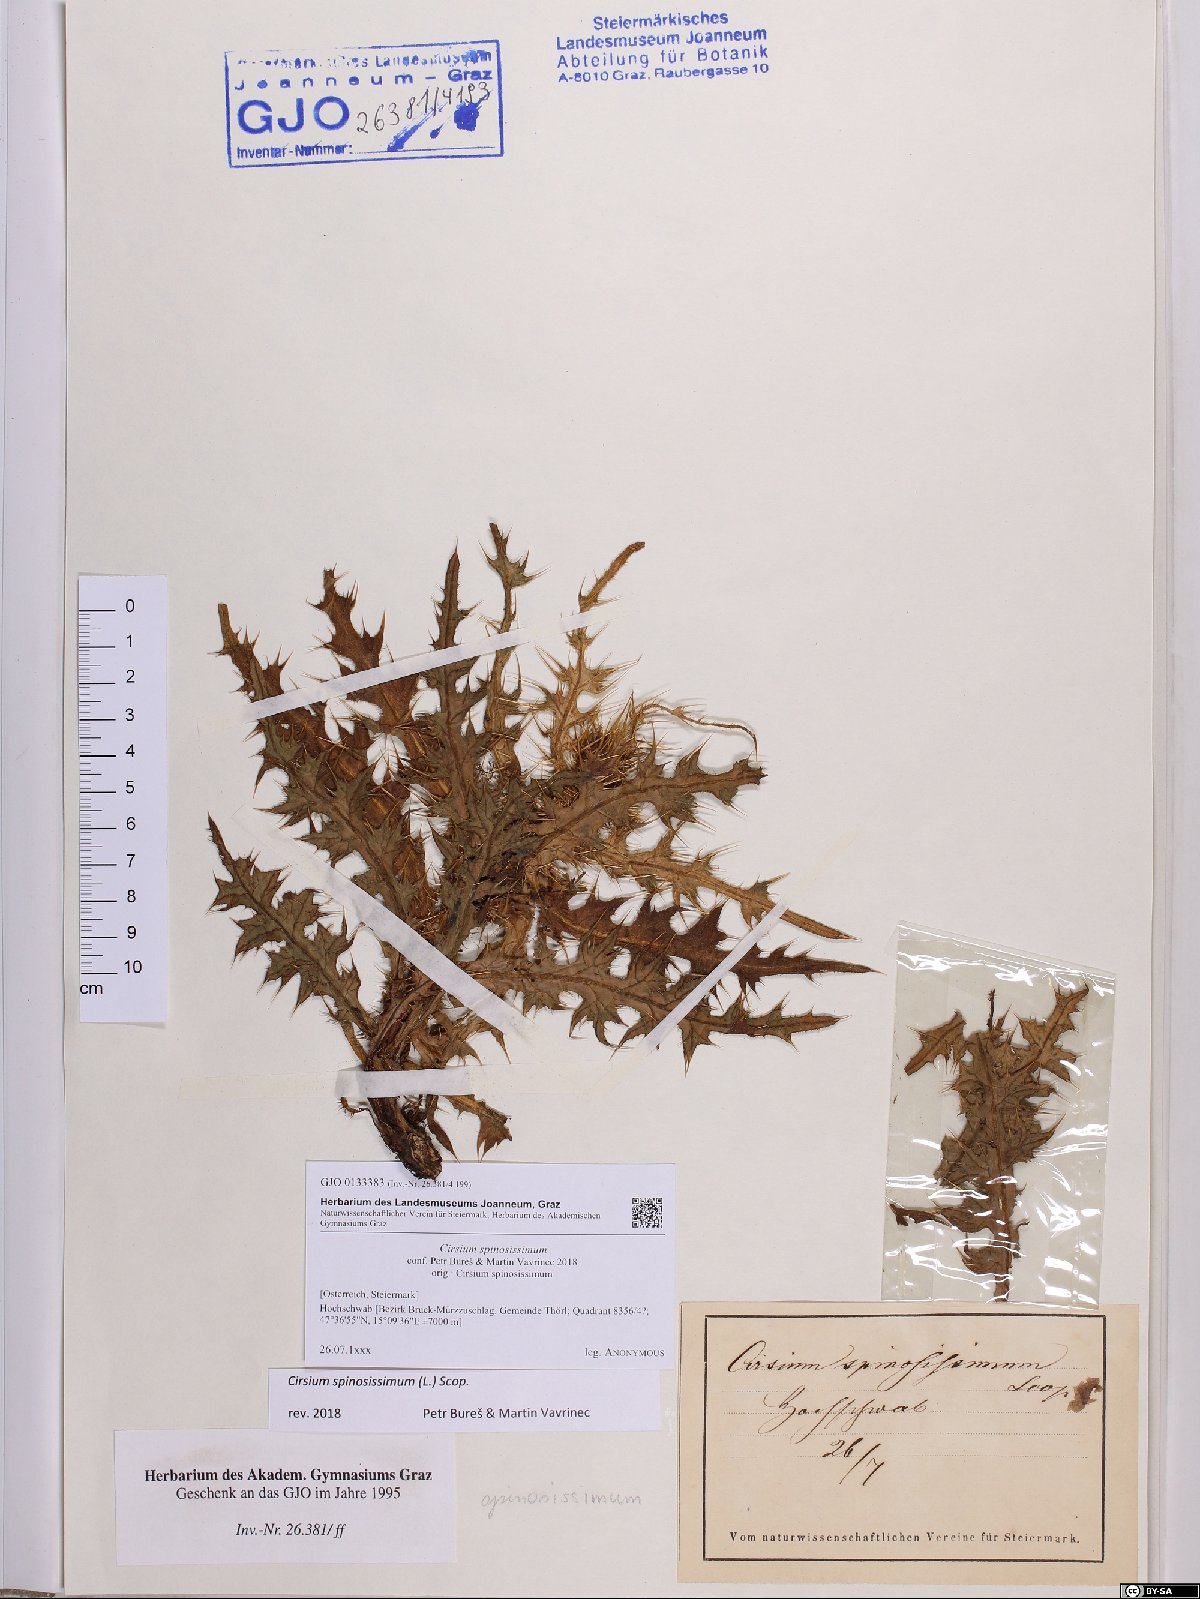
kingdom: Plantae
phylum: Tracheophyta
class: Magnoliopsida
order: Asterales
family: Asteraceae
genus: Cirsium
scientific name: Cirsium spinosissimum
